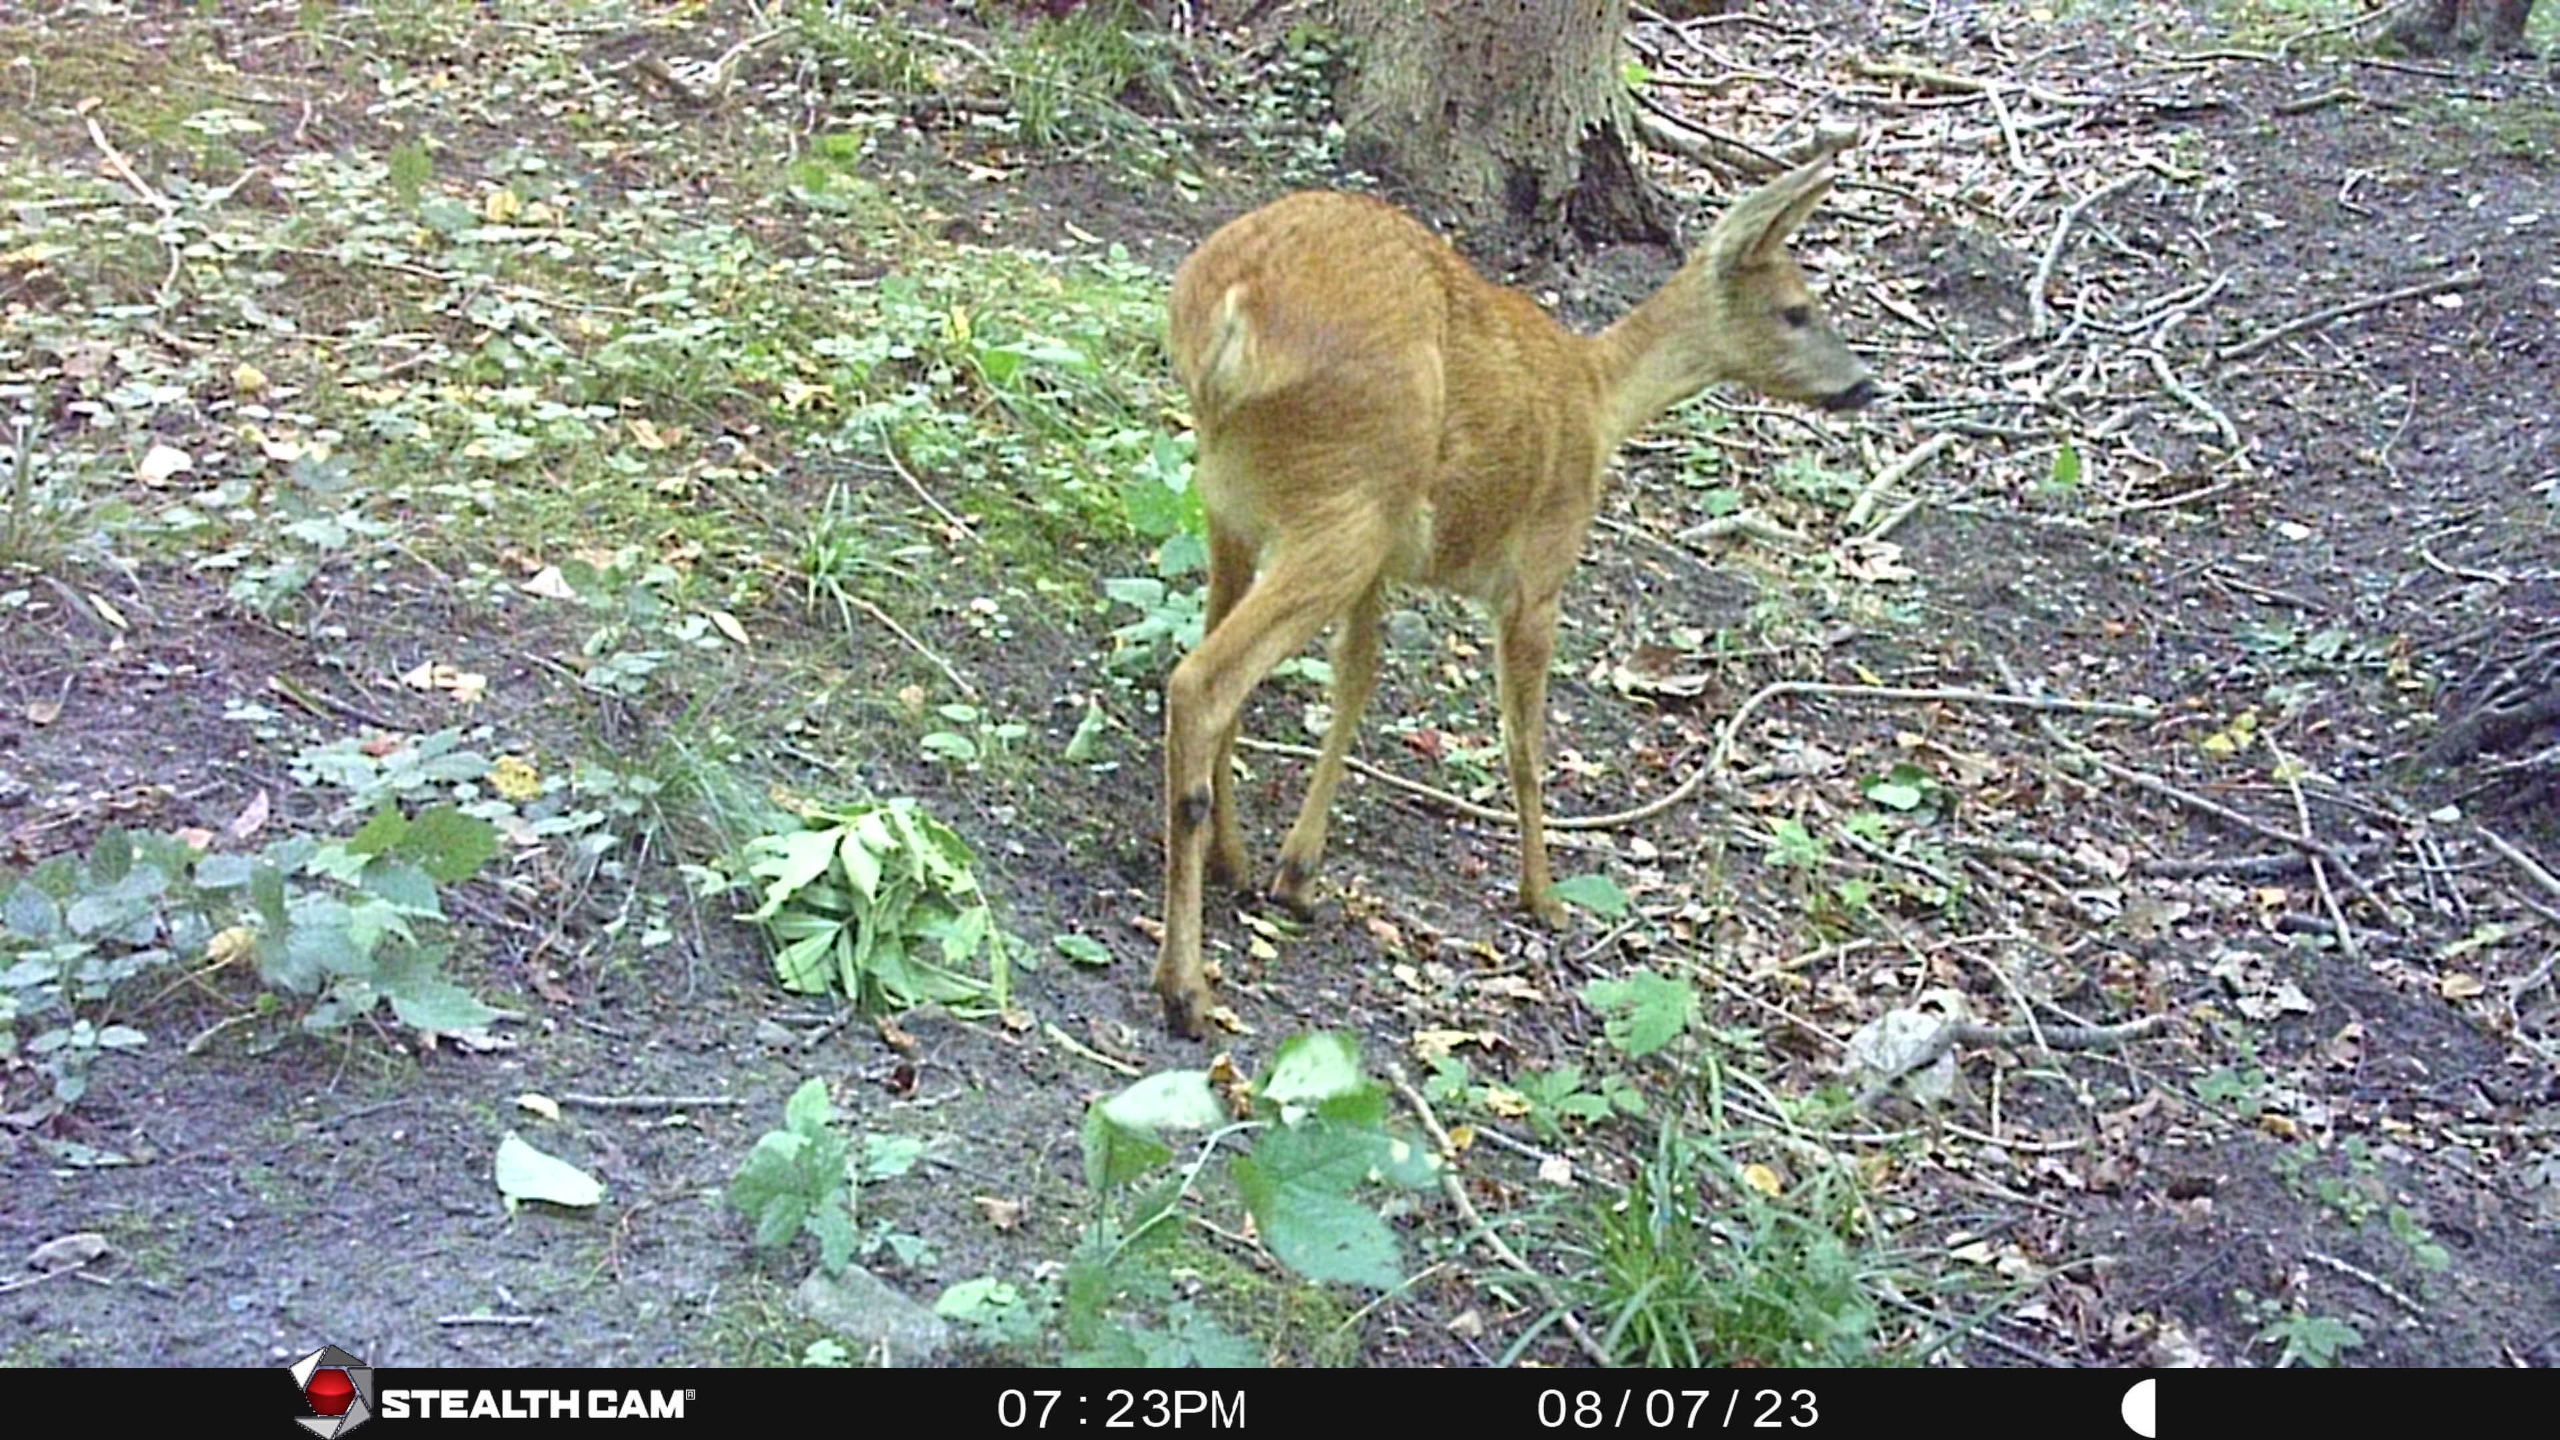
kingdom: Animalia
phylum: Chordata
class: Mammalia
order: Artiodactyla
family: Cervidae
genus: Capreolus
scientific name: Capreolus capreolus
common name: Rådyr
